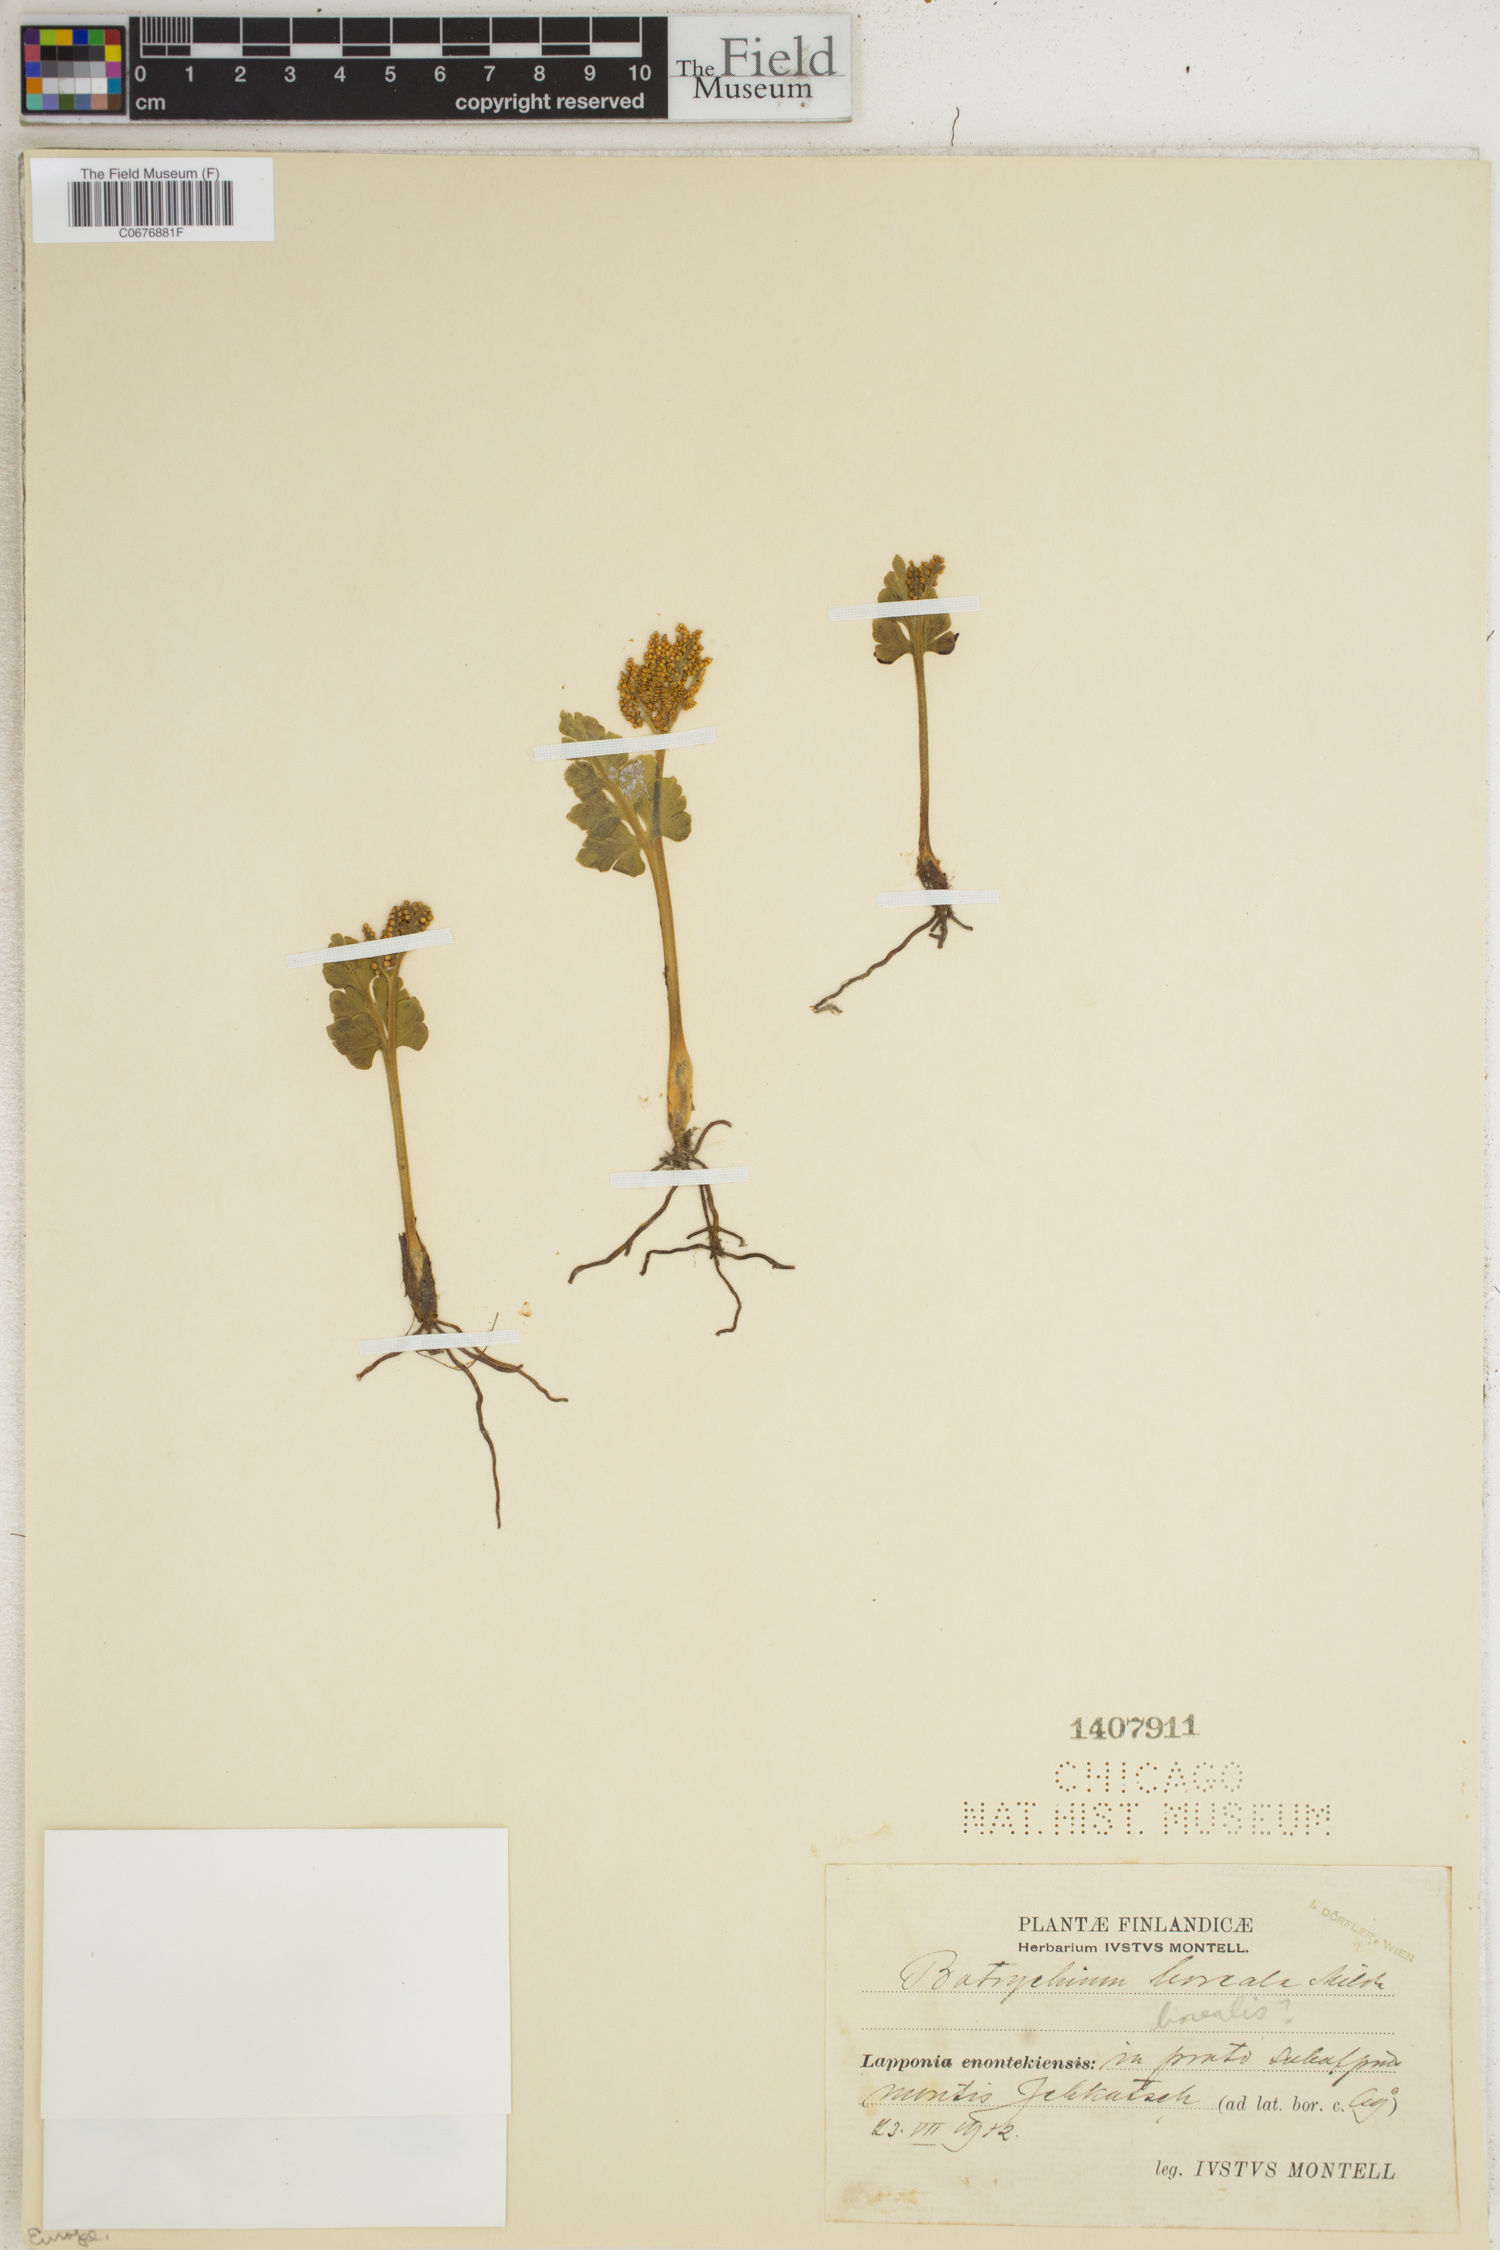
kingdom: Plantae
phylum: Tracheophyta
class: Polypodiopsida
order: Ophioglossales
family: Ophioglossaceae
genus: Botrychium
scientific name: Botrychium lunaria
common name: Moonwort
